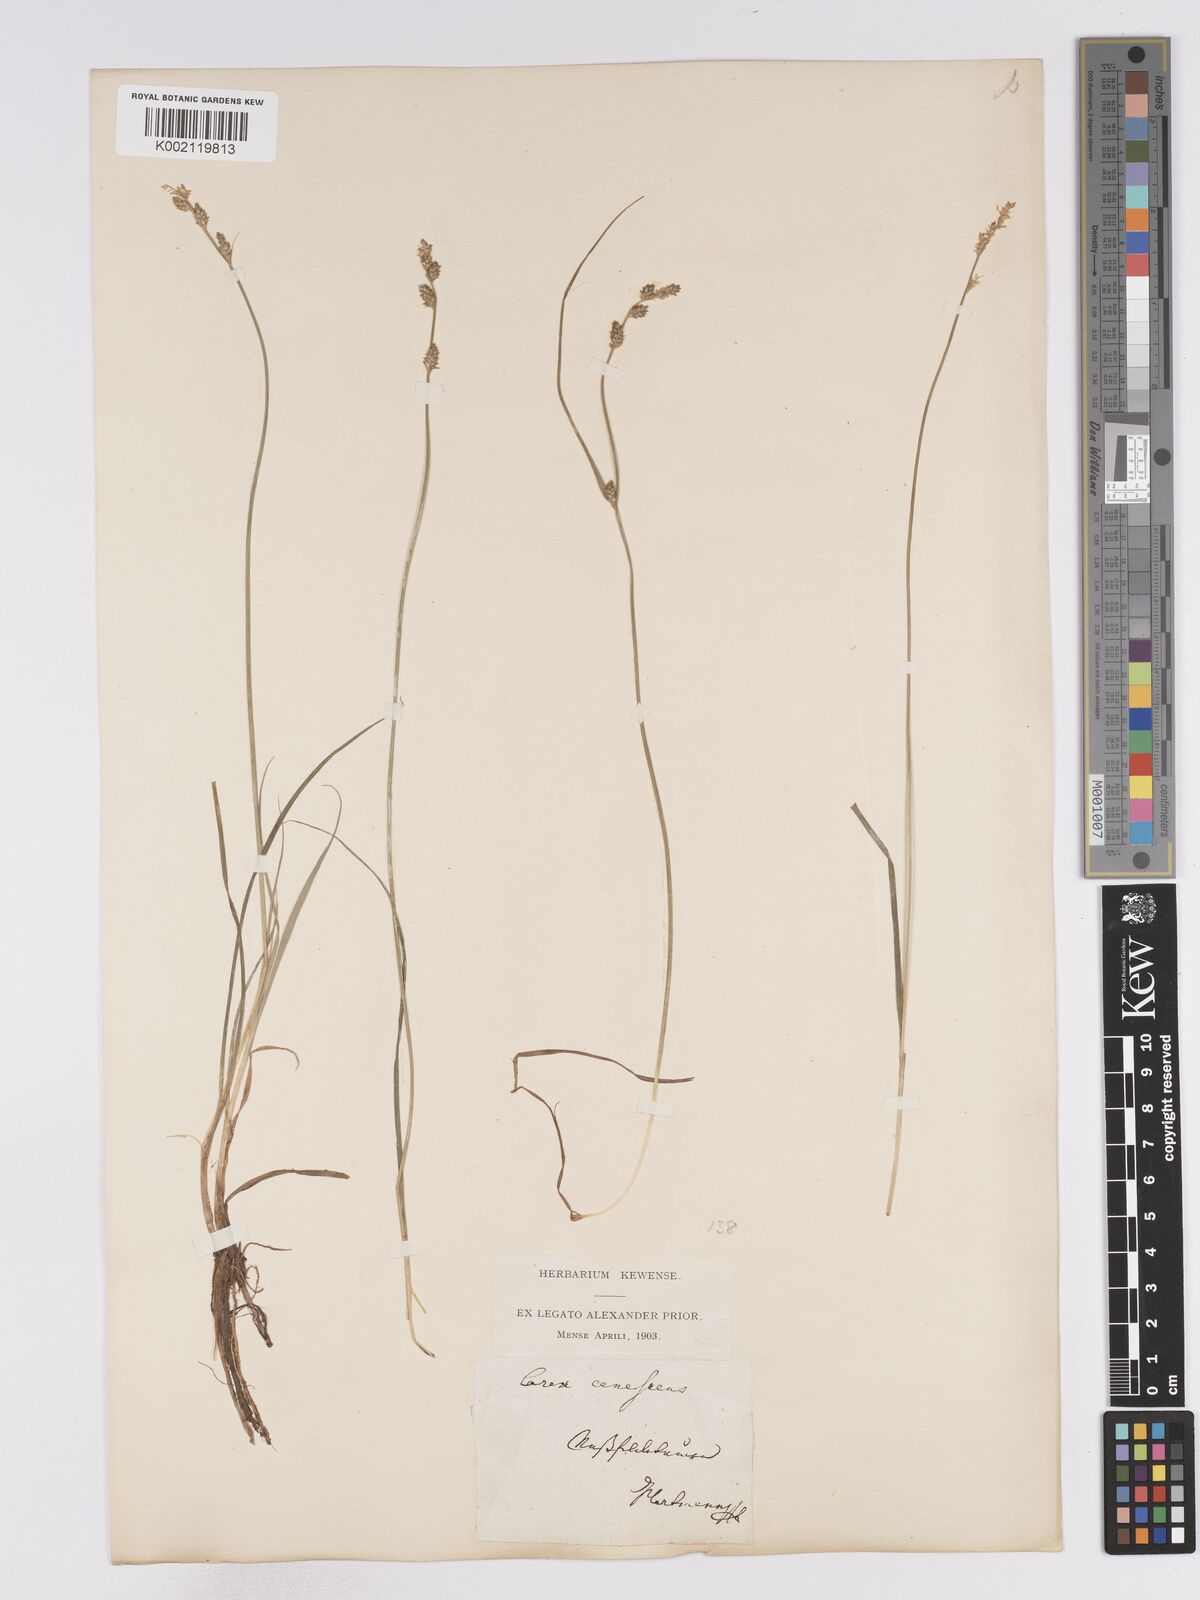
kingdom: Plantae
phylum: Tracheophyta
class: Liliopsida
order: Poales
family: Cyperaceae
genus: Carex
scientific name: Carex curta
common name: White sedge
